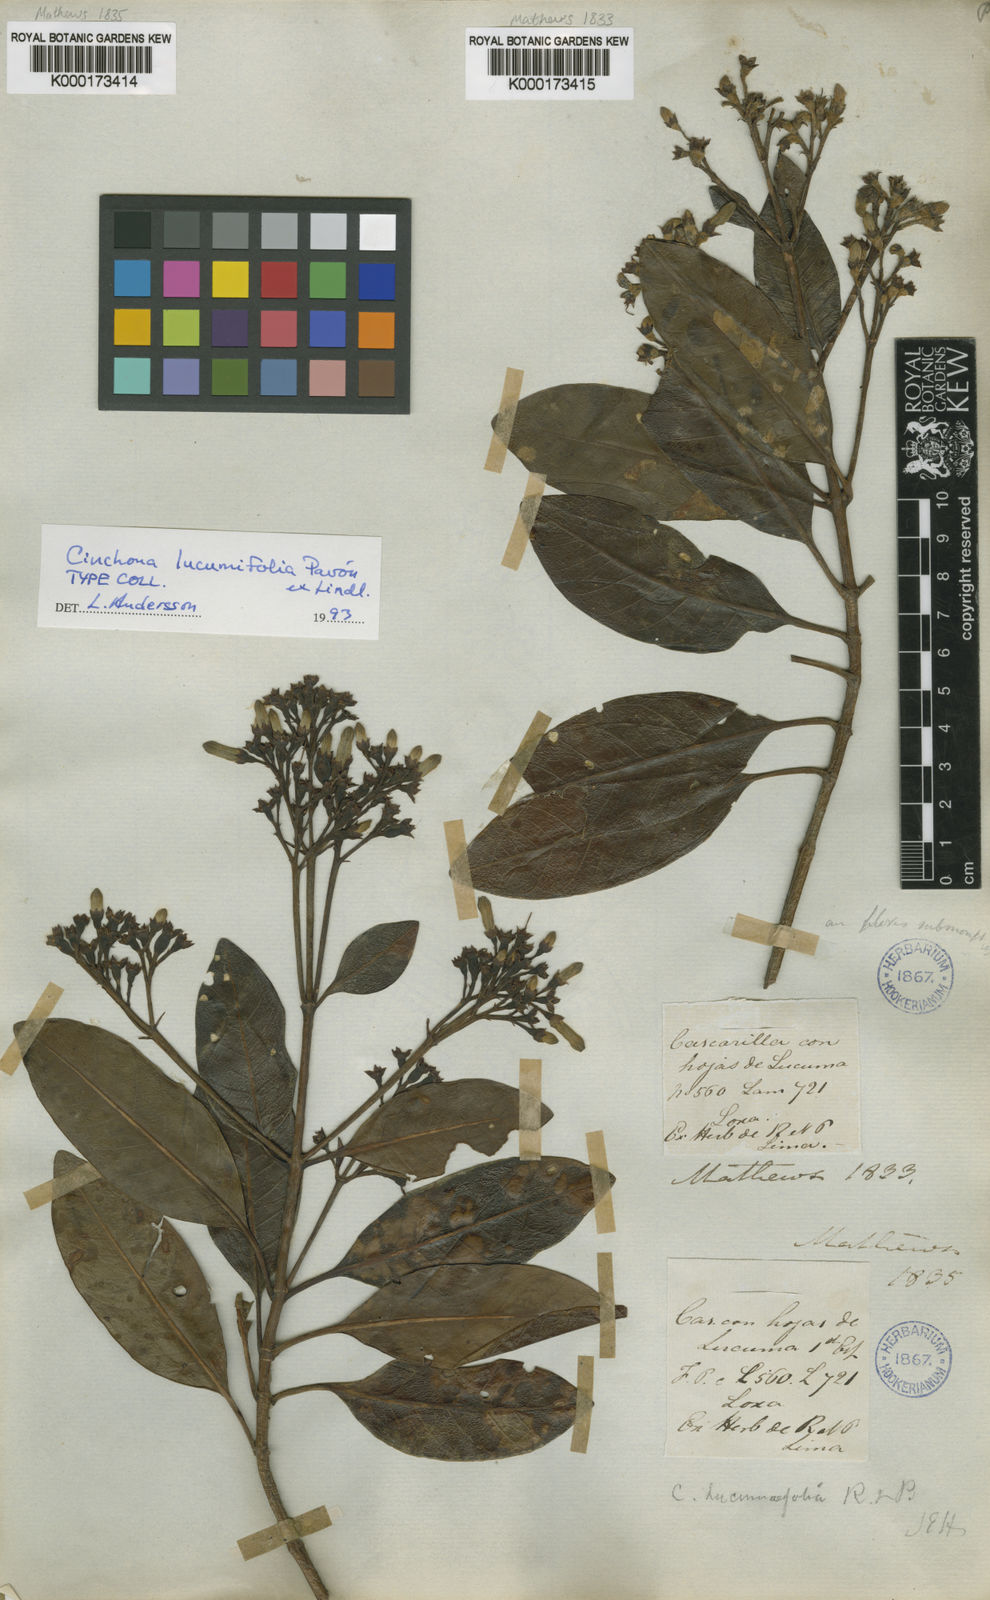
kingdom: Plantae
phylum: Tracheophyta
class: Magnoliopsida
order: Gentianales
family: Rubiaceae
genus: Cinchona
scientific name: Cinchona lucumifolia
